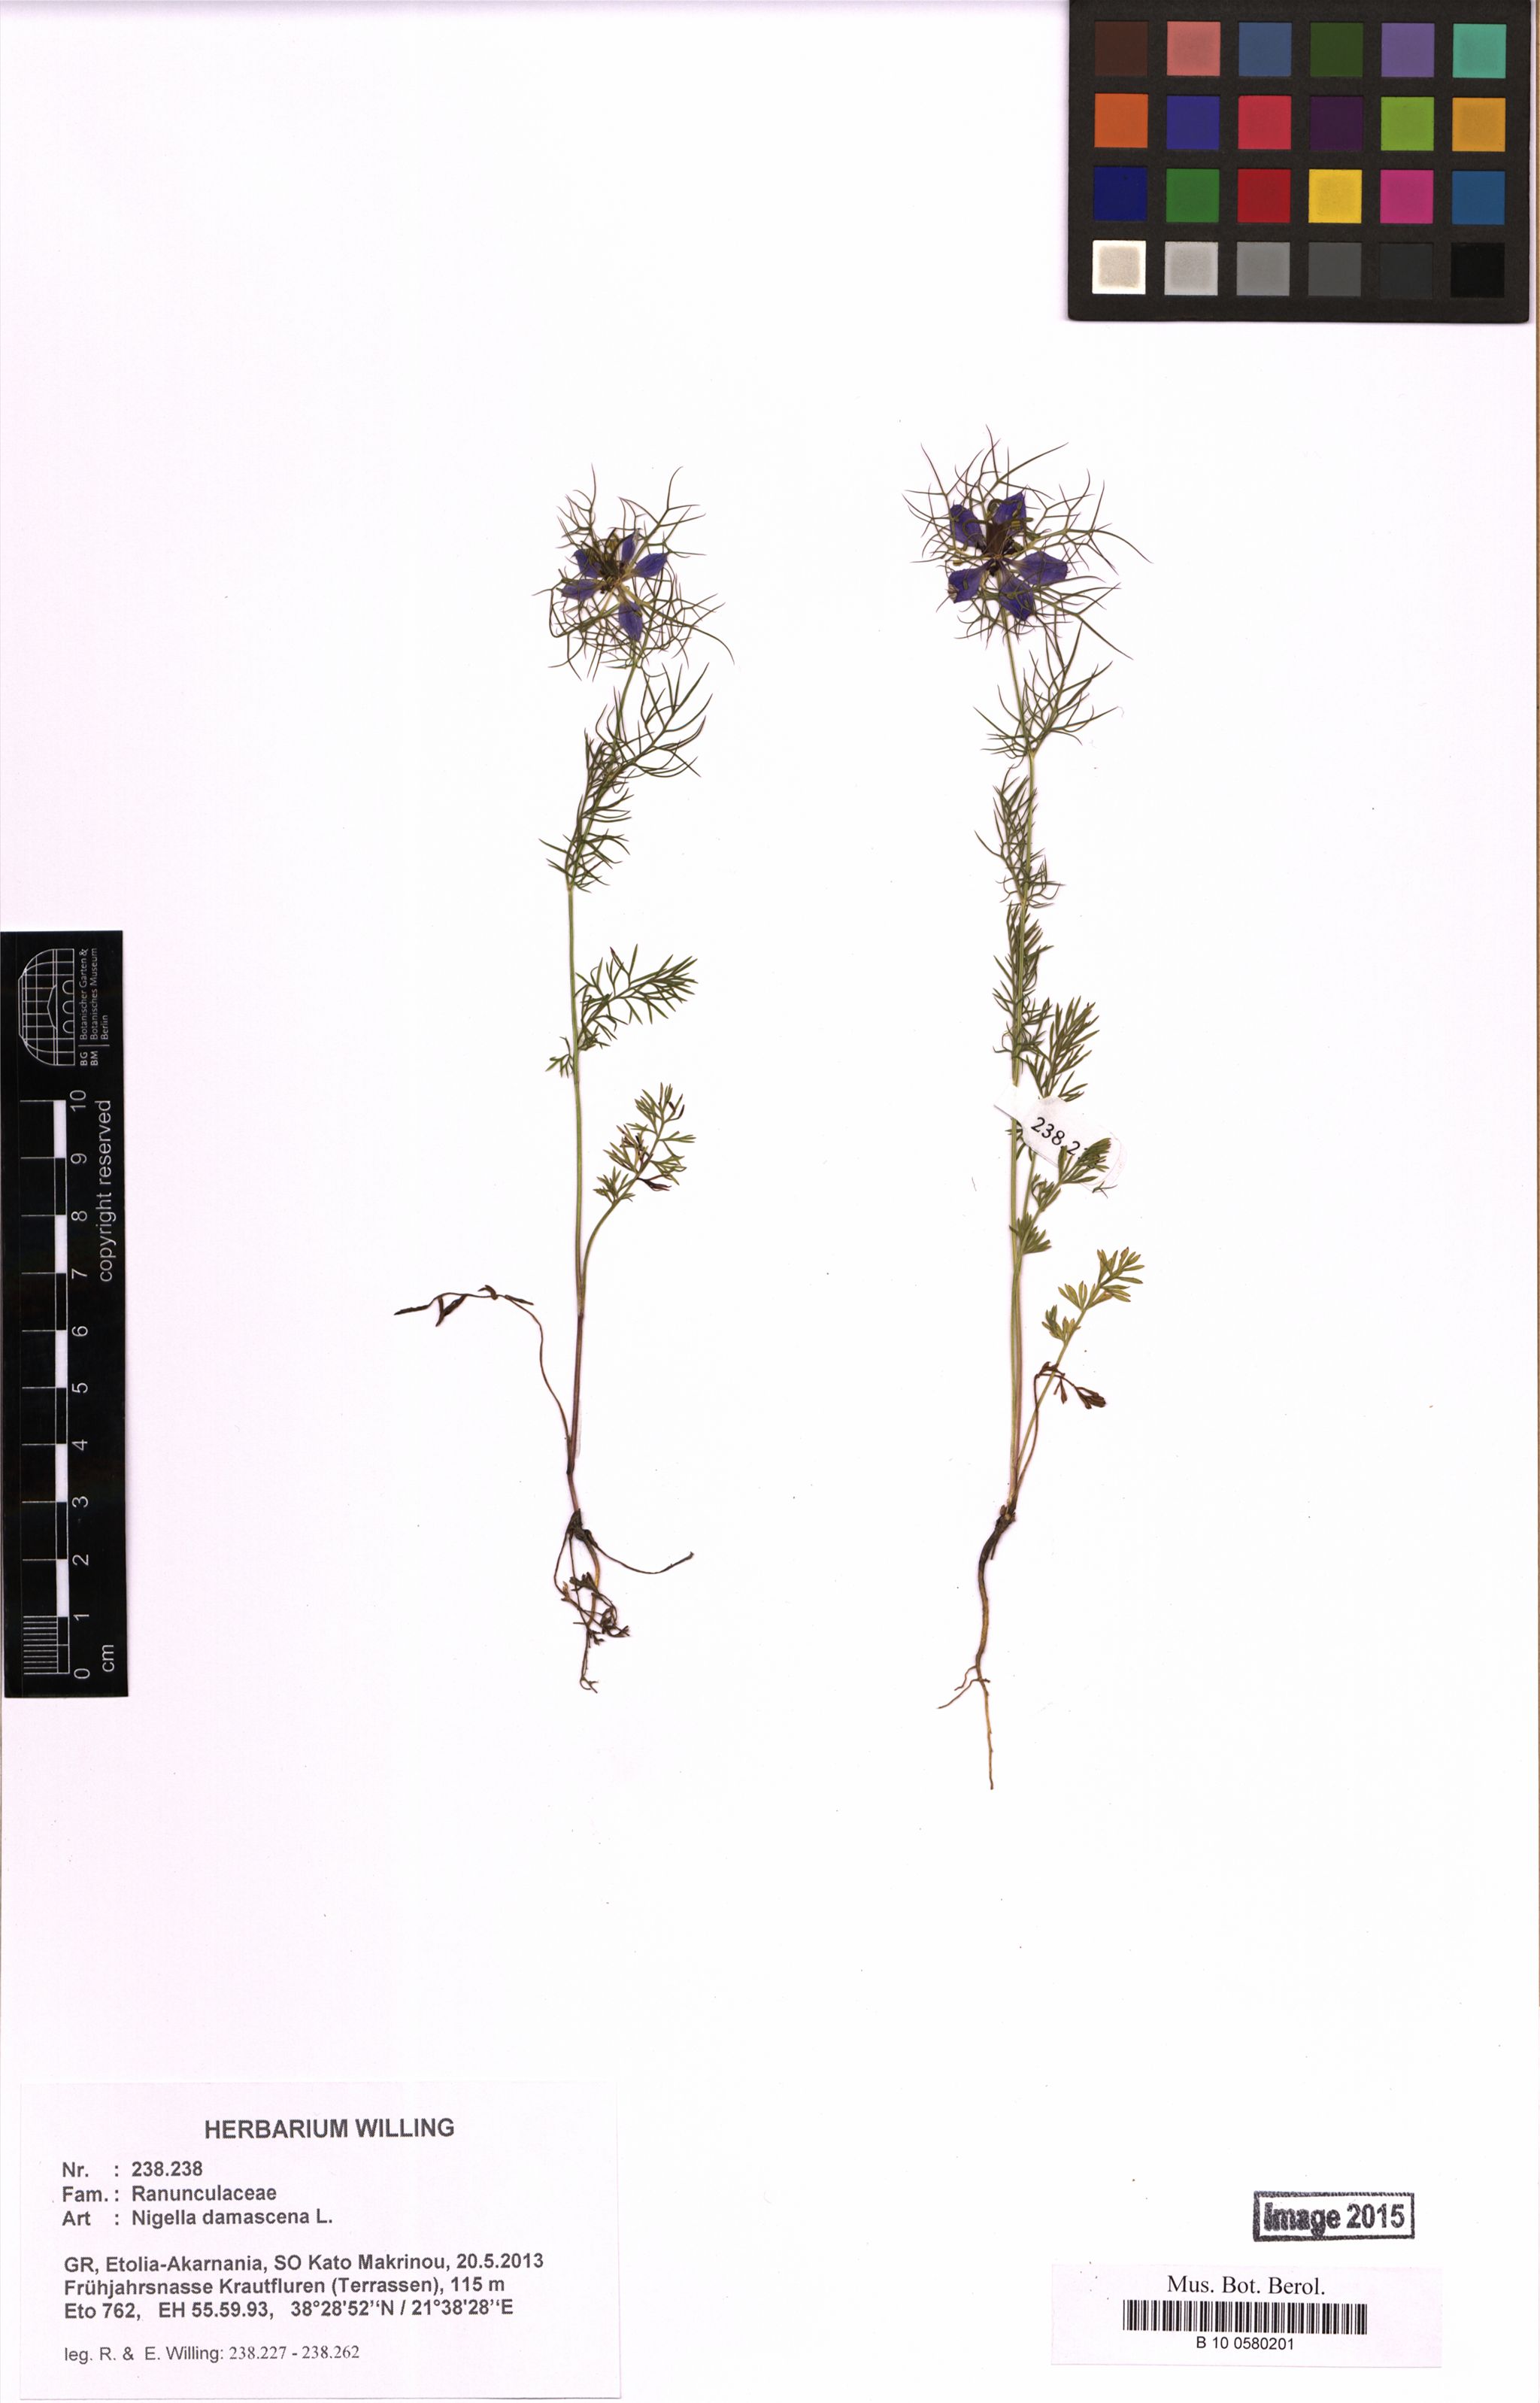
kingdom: Plantae
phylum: Tracheophyta
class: Magnoliopsida
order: Ranunculales
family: Ranunculaceae
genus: Nigella
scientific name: Nigella damascena
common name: Love-in-a-mist
